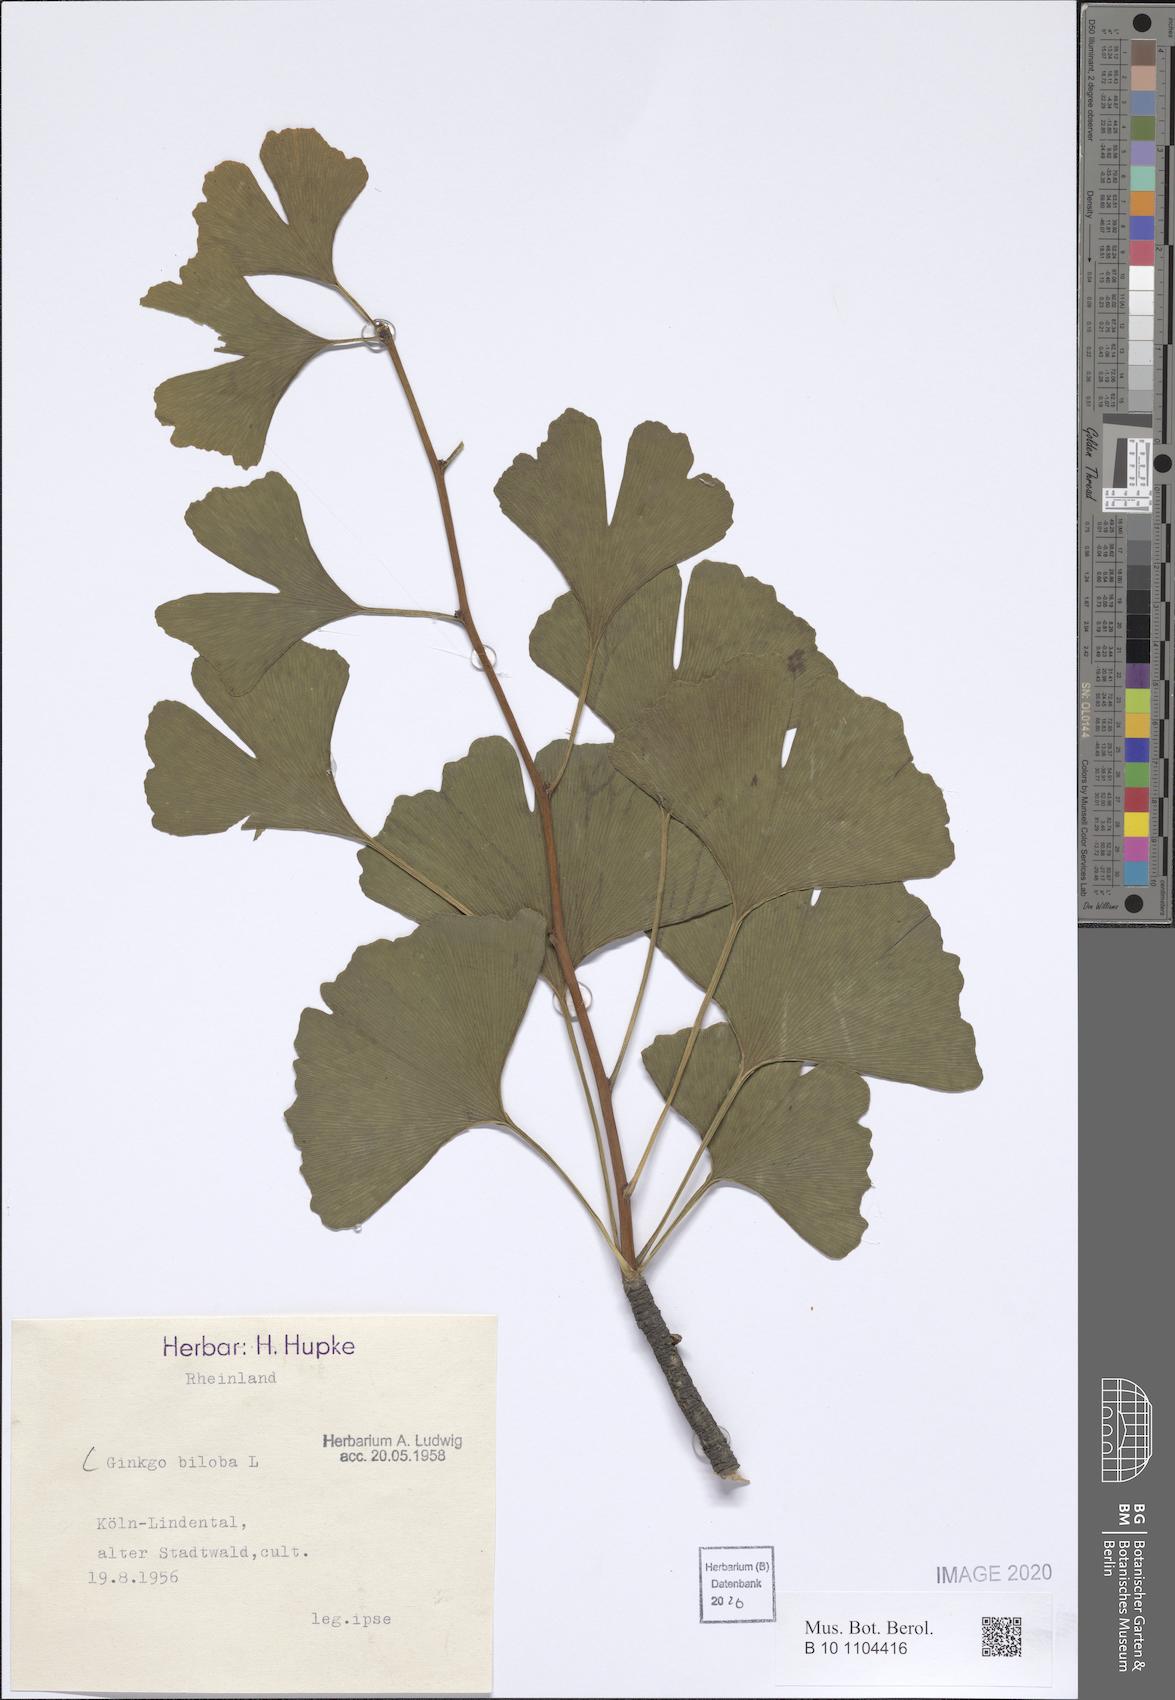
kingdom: Plantae
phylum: Tracheophyta
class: Ginkgoopsida
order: Ginkgoales
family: Ginkgoaceae
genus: Ginkgo
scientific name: Ginkgo biloba
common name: Ginkgo
